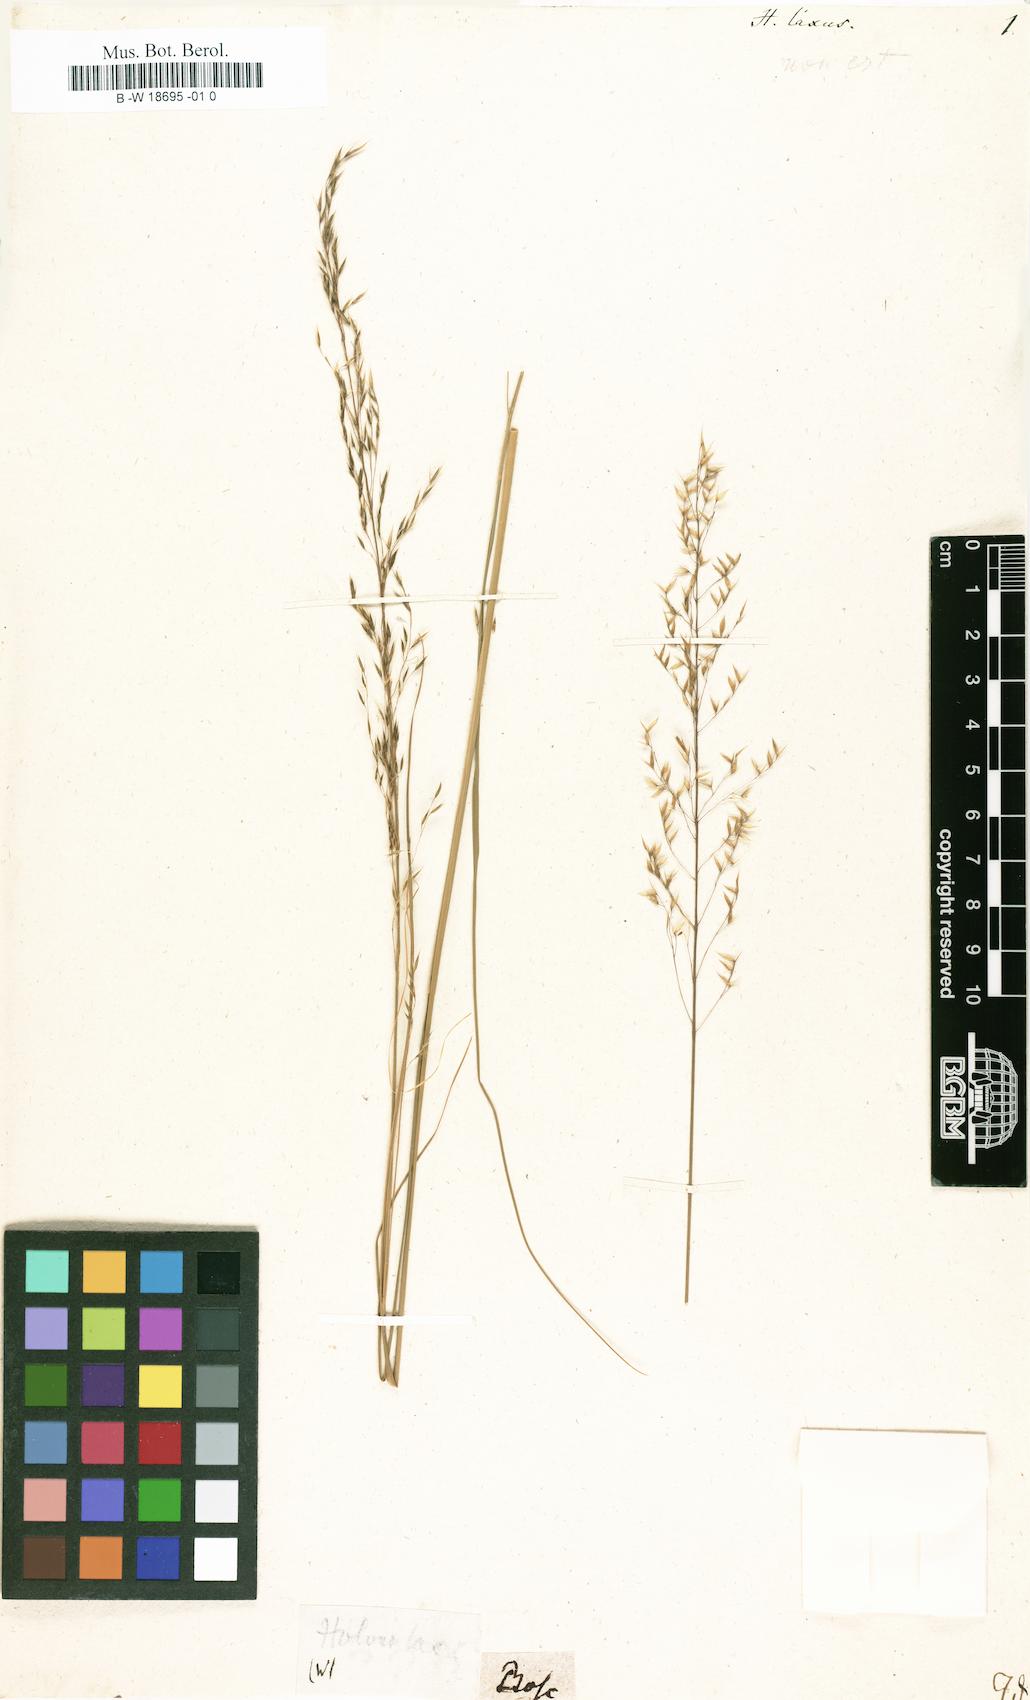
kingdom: Plantae
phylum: Tracheophyta
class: Liliopsida
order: Poales
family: Poaceae
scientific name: Poaceae
